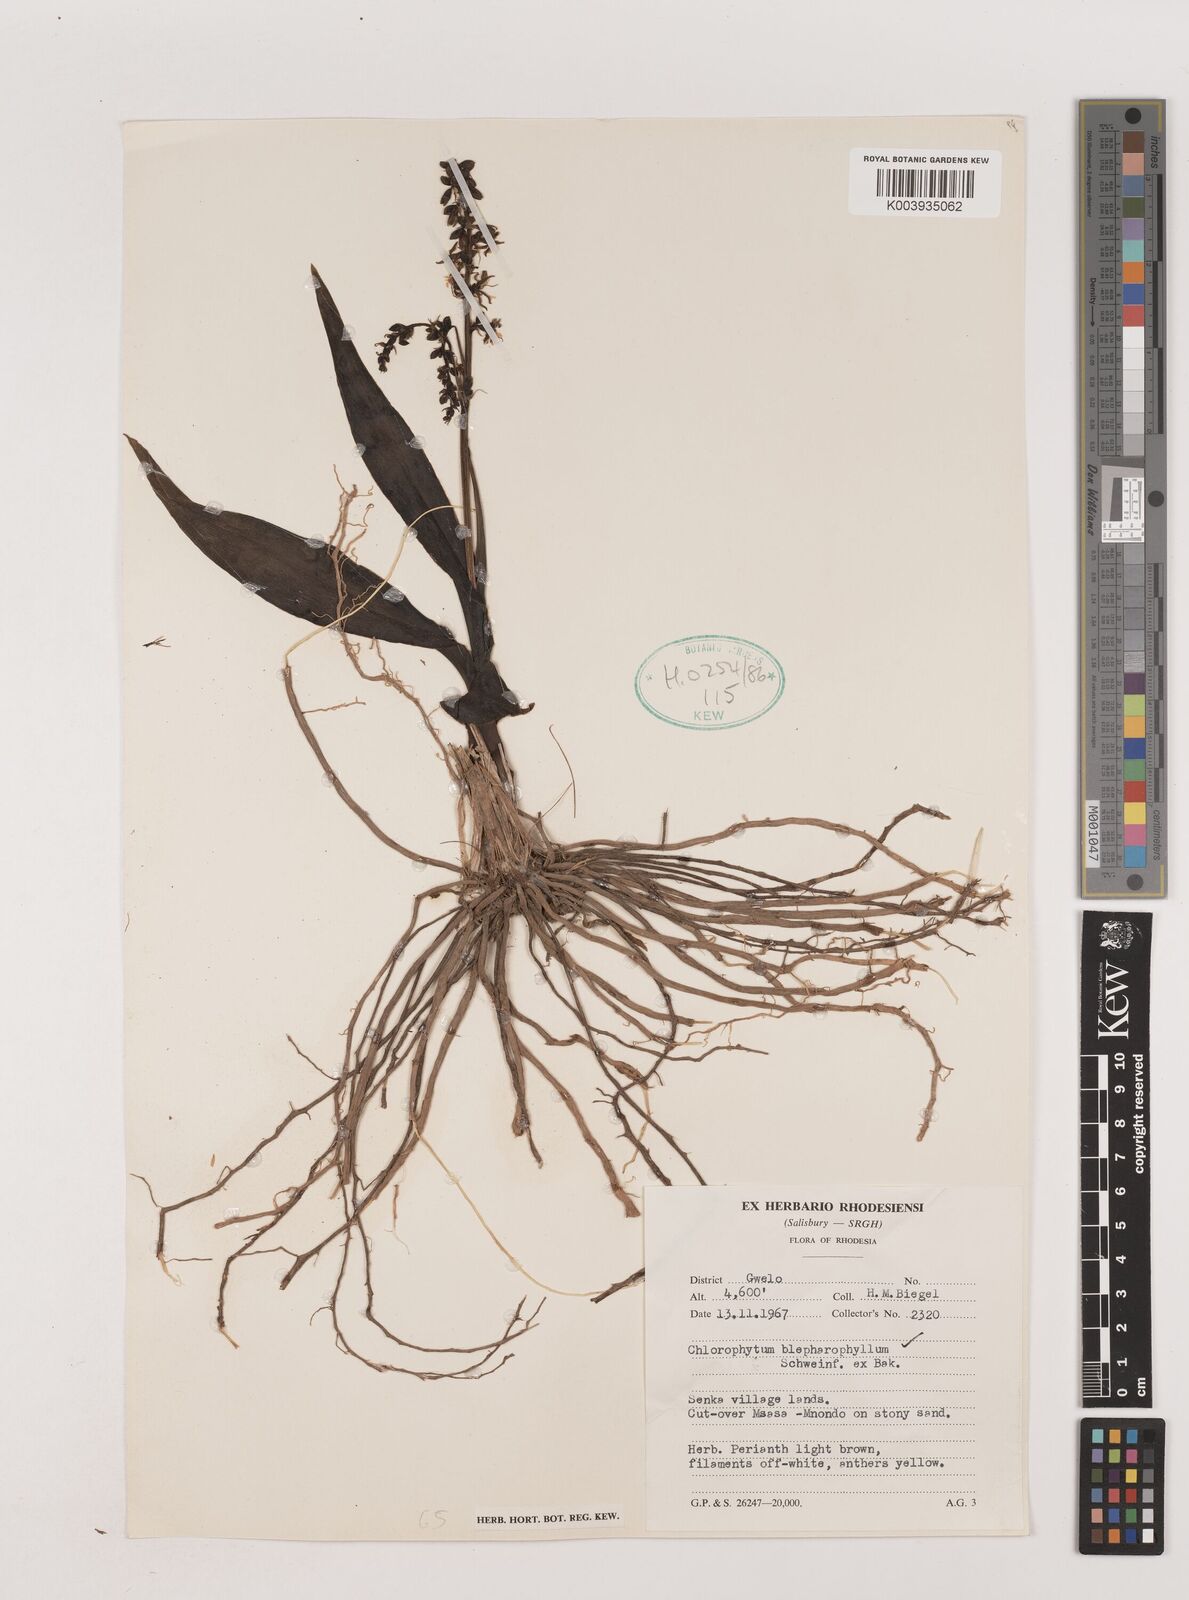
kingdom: Plantae
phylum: Tracheophyta
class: Liliopsida
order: Asparagales
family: Asparagaceae
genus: Chlorophytum
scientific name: Chlorophytum blepharophyllum
